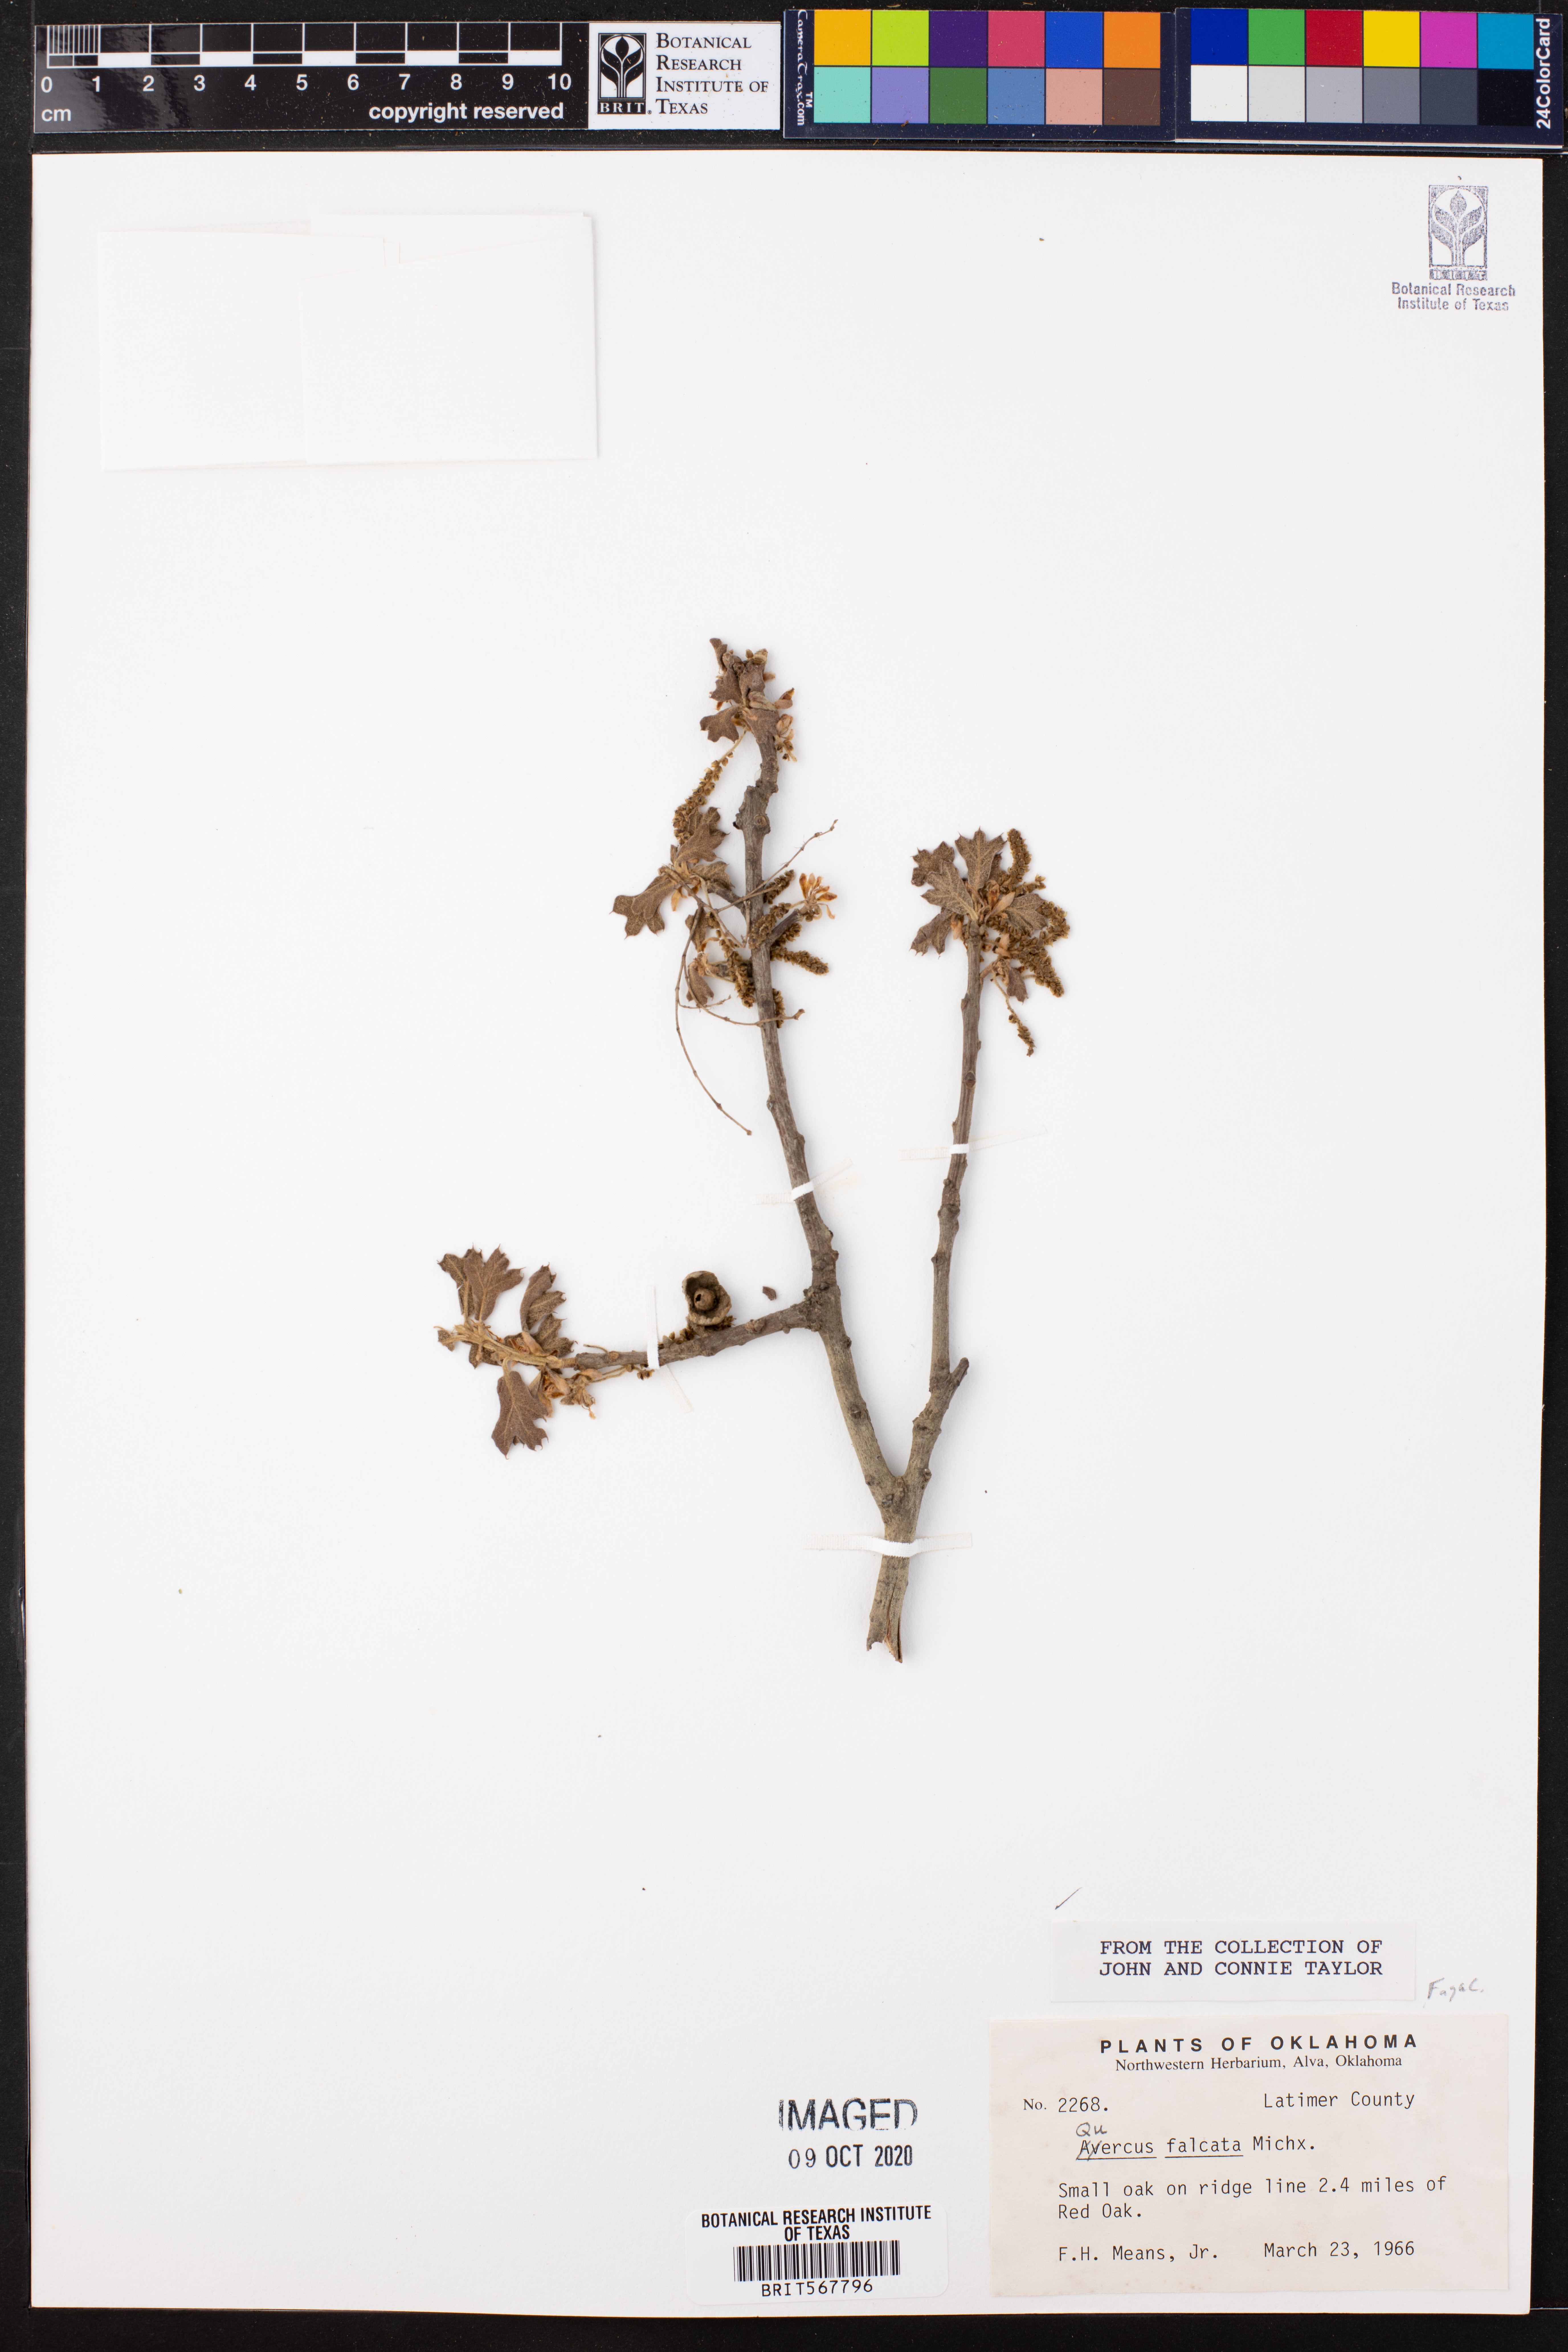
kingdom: Plantae
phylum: Tracheophyta
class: Magnoliopsida
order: Fagales
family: Fagaceae
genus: Quercus
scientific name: Quercus falcata
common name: Southern red oak
